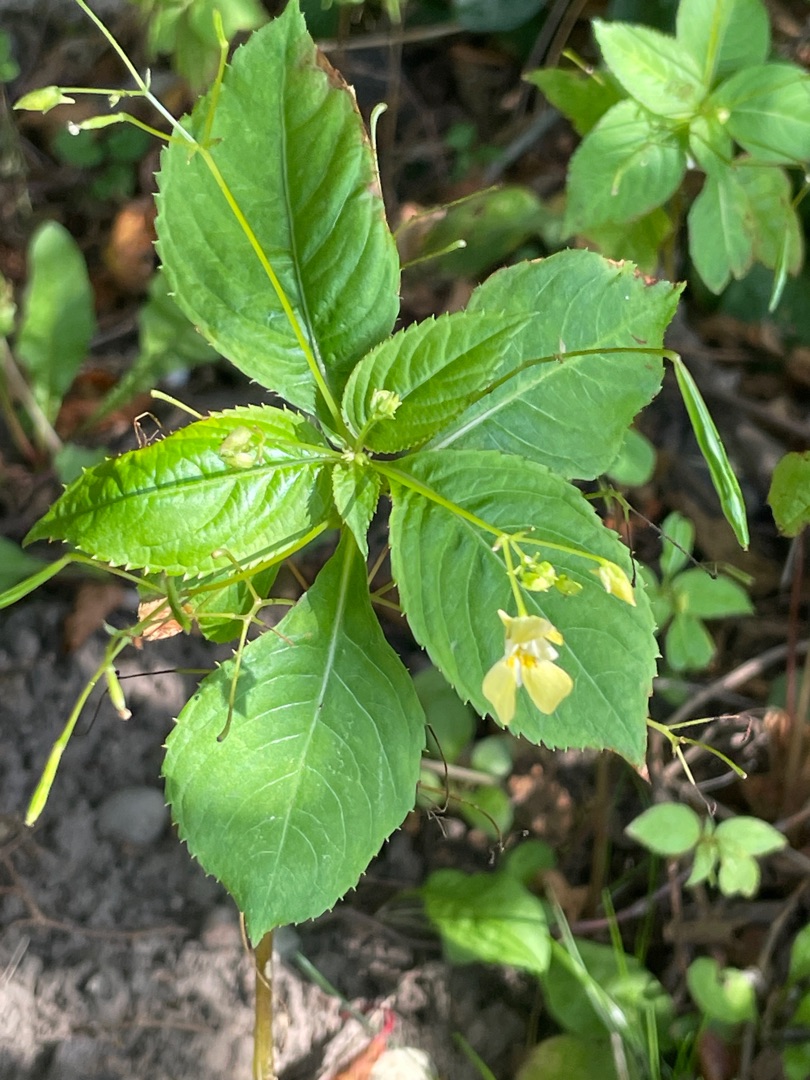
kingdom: Plantae
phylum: Tracheophyta
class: Magnoliopsida
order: Ericales
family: Balsaminaceae
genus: Impatiens
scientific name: Impatiens parviflora
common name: Småblomstret balsamin
